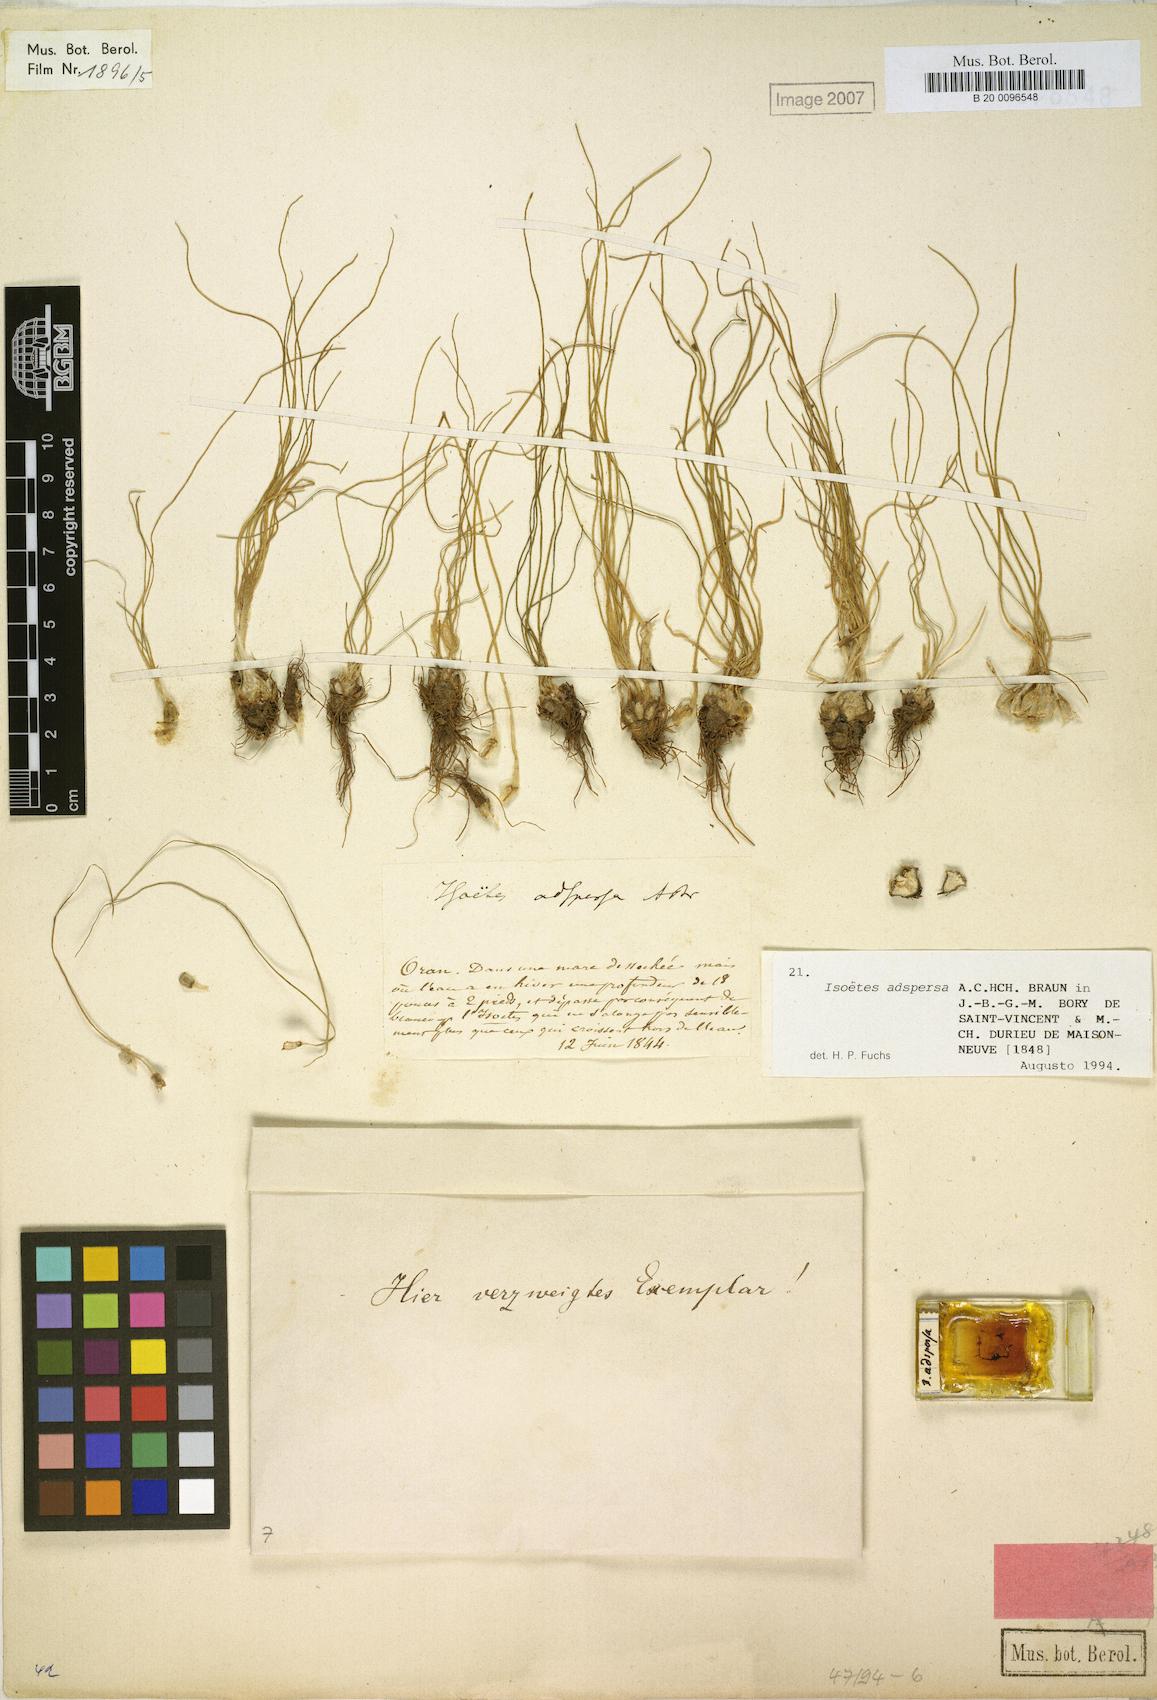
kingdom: Plantae
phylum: Tracheophyta
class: Lycopodiopsida
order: Isoetales
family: Isoetaceae
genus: Isoetes
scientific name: Isoetes longissima
